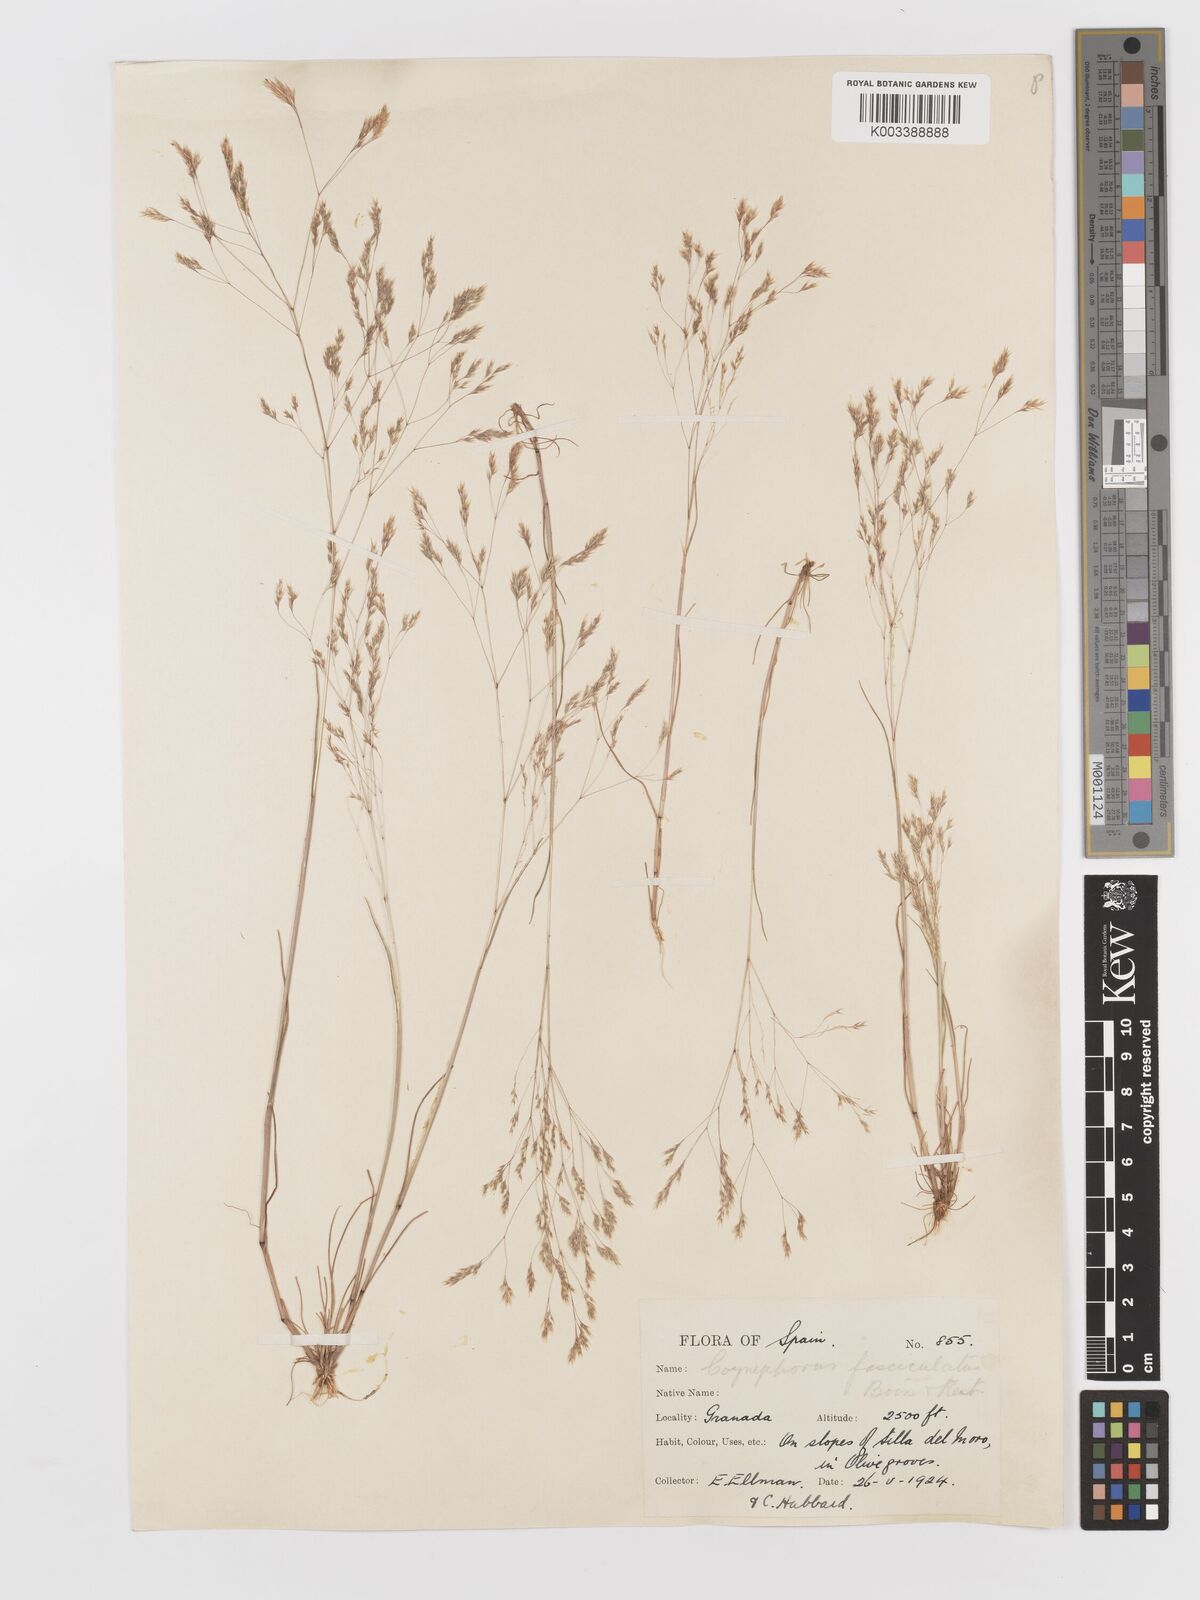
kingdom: Plantae
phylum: Tracheophyta
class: Liliopsida
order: Poales
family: Poaceae
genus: Corynephorus
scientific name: Corynephorus fasciculatus
